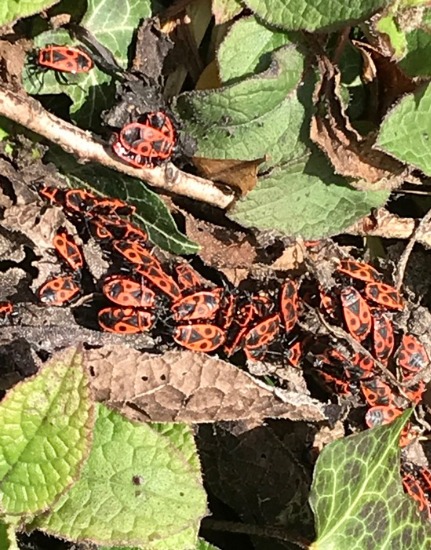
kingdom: Animalia
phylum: Arthropoda
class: Insecta
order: Hemiptera
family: Pyrrhocoridae
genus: Pyrrhocoris
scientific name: Pyrrhocoris apterus
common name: Ildtæge
